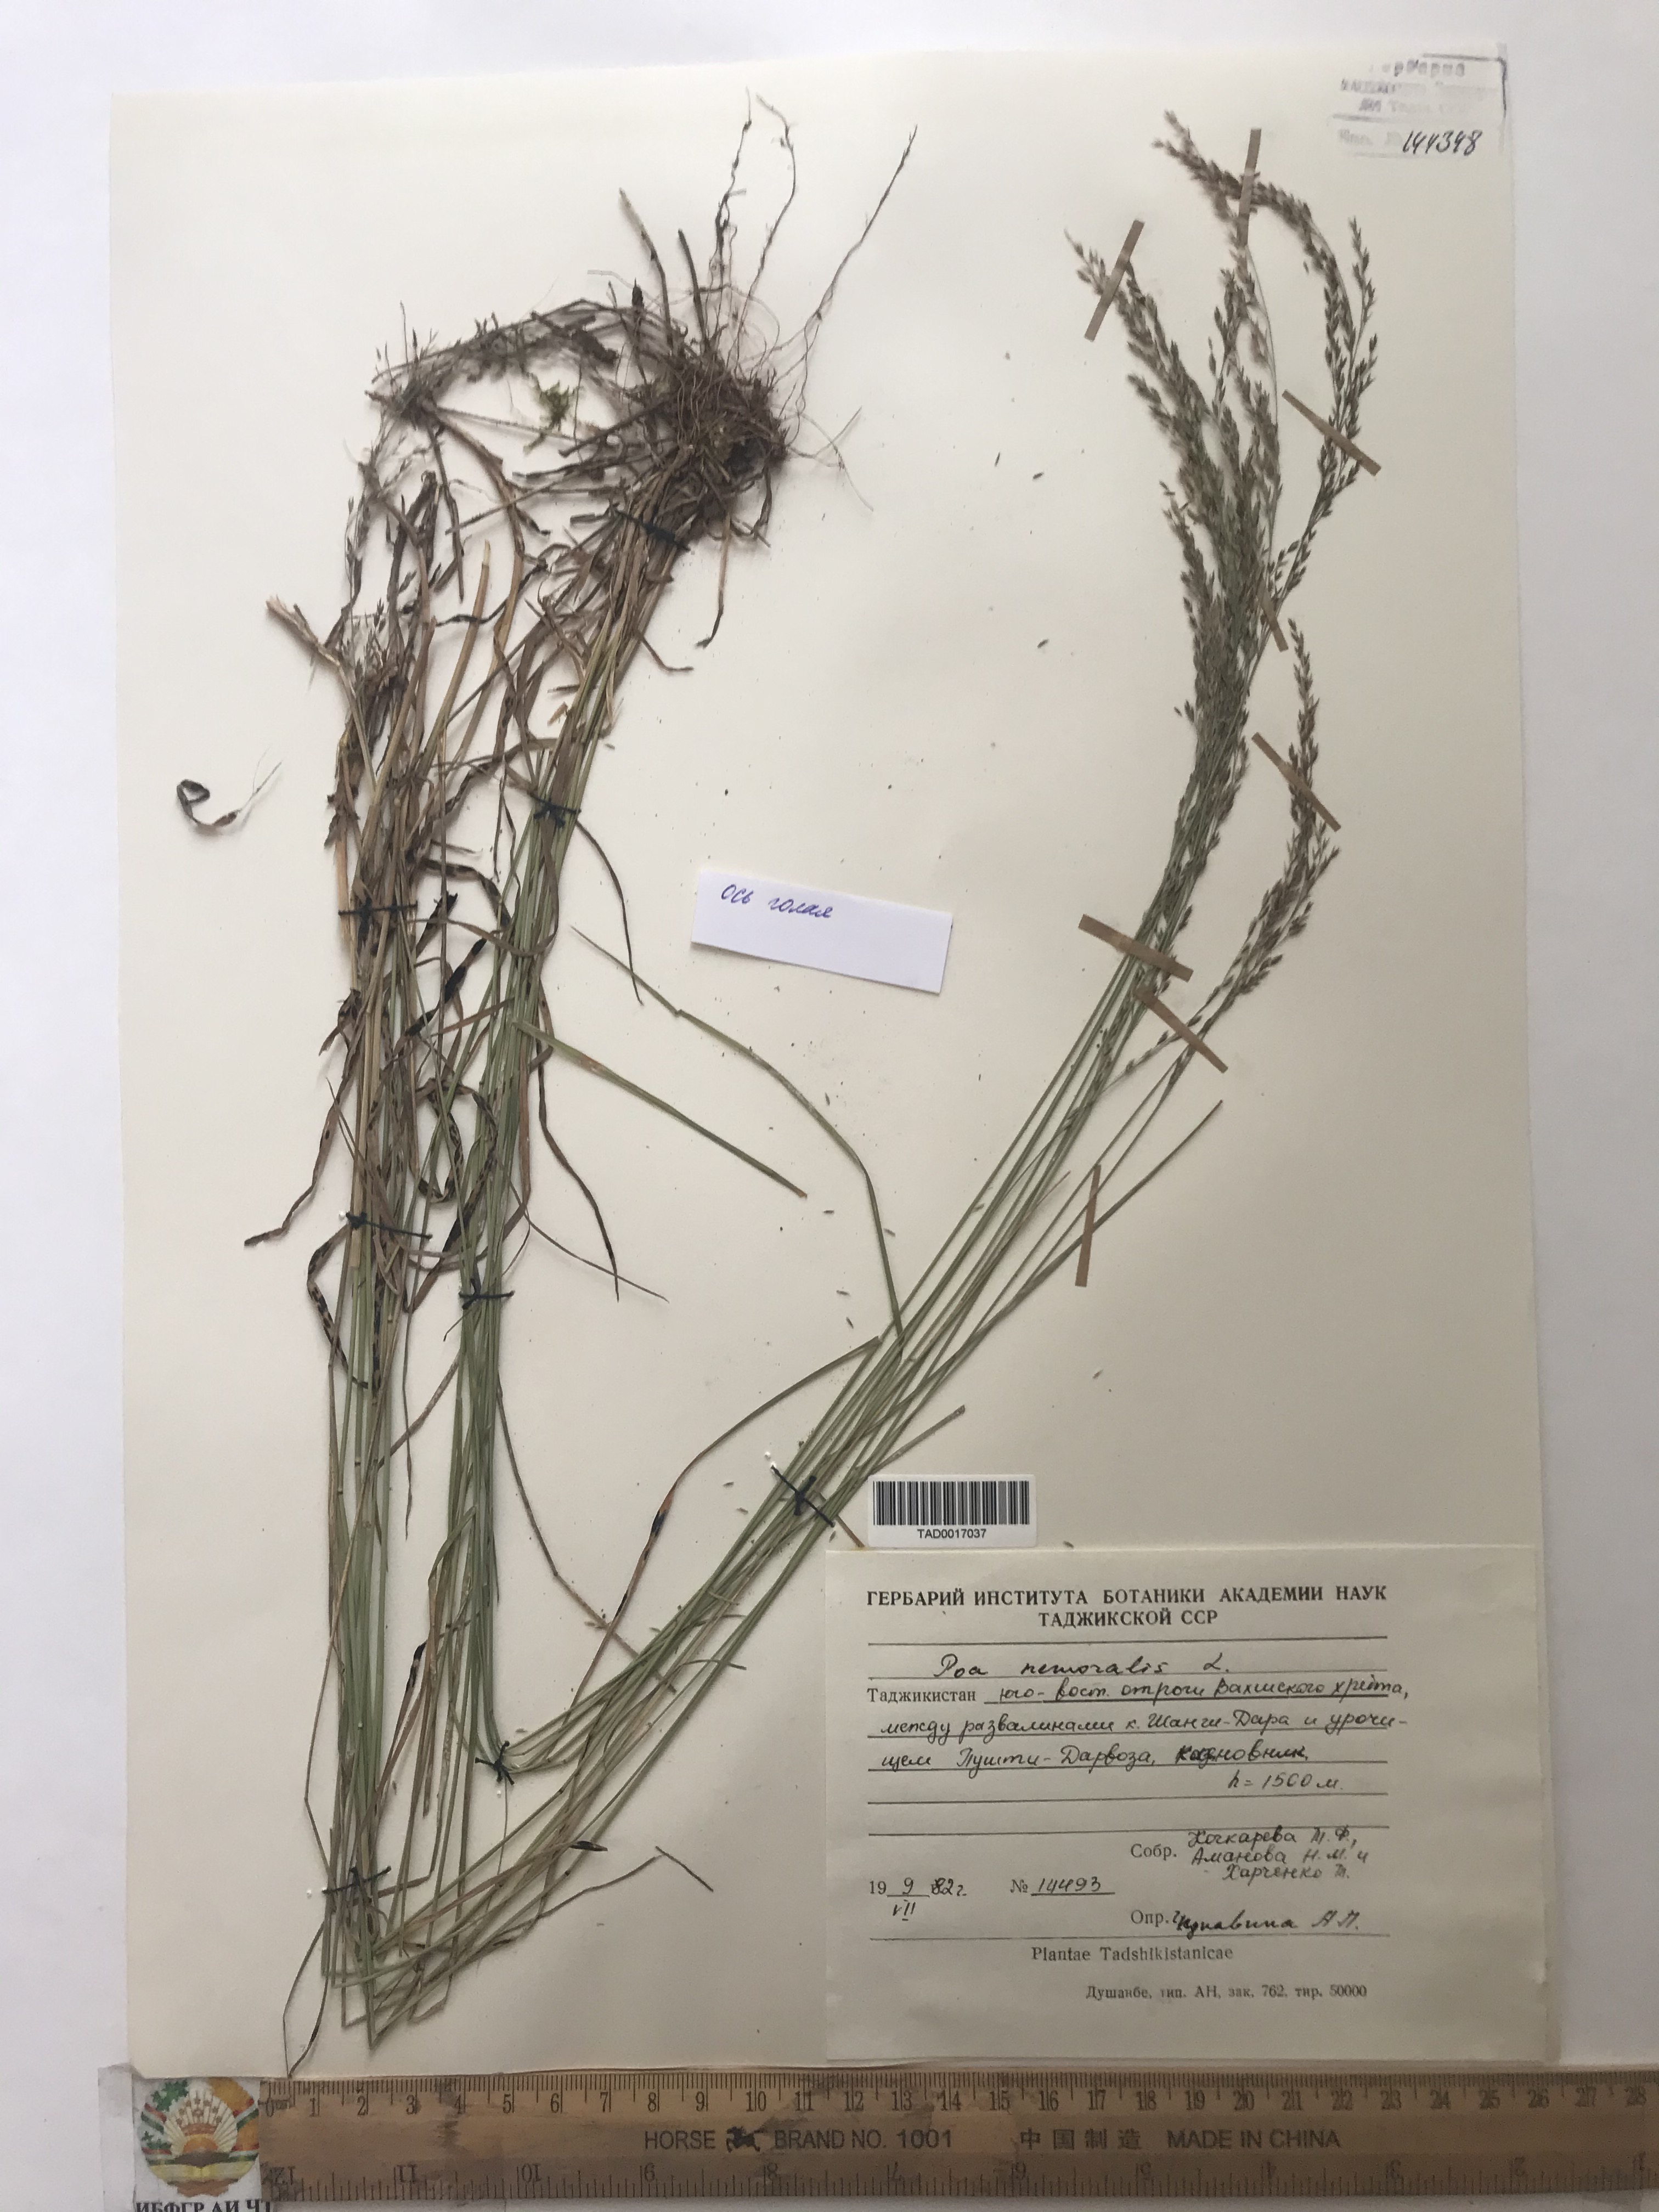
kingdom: Plantae
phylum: Tracheophyta
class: Liliopsida
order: Poales
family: Poaceae
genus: Poa
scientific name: Poa nemoralis
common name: Wood bluegrass
